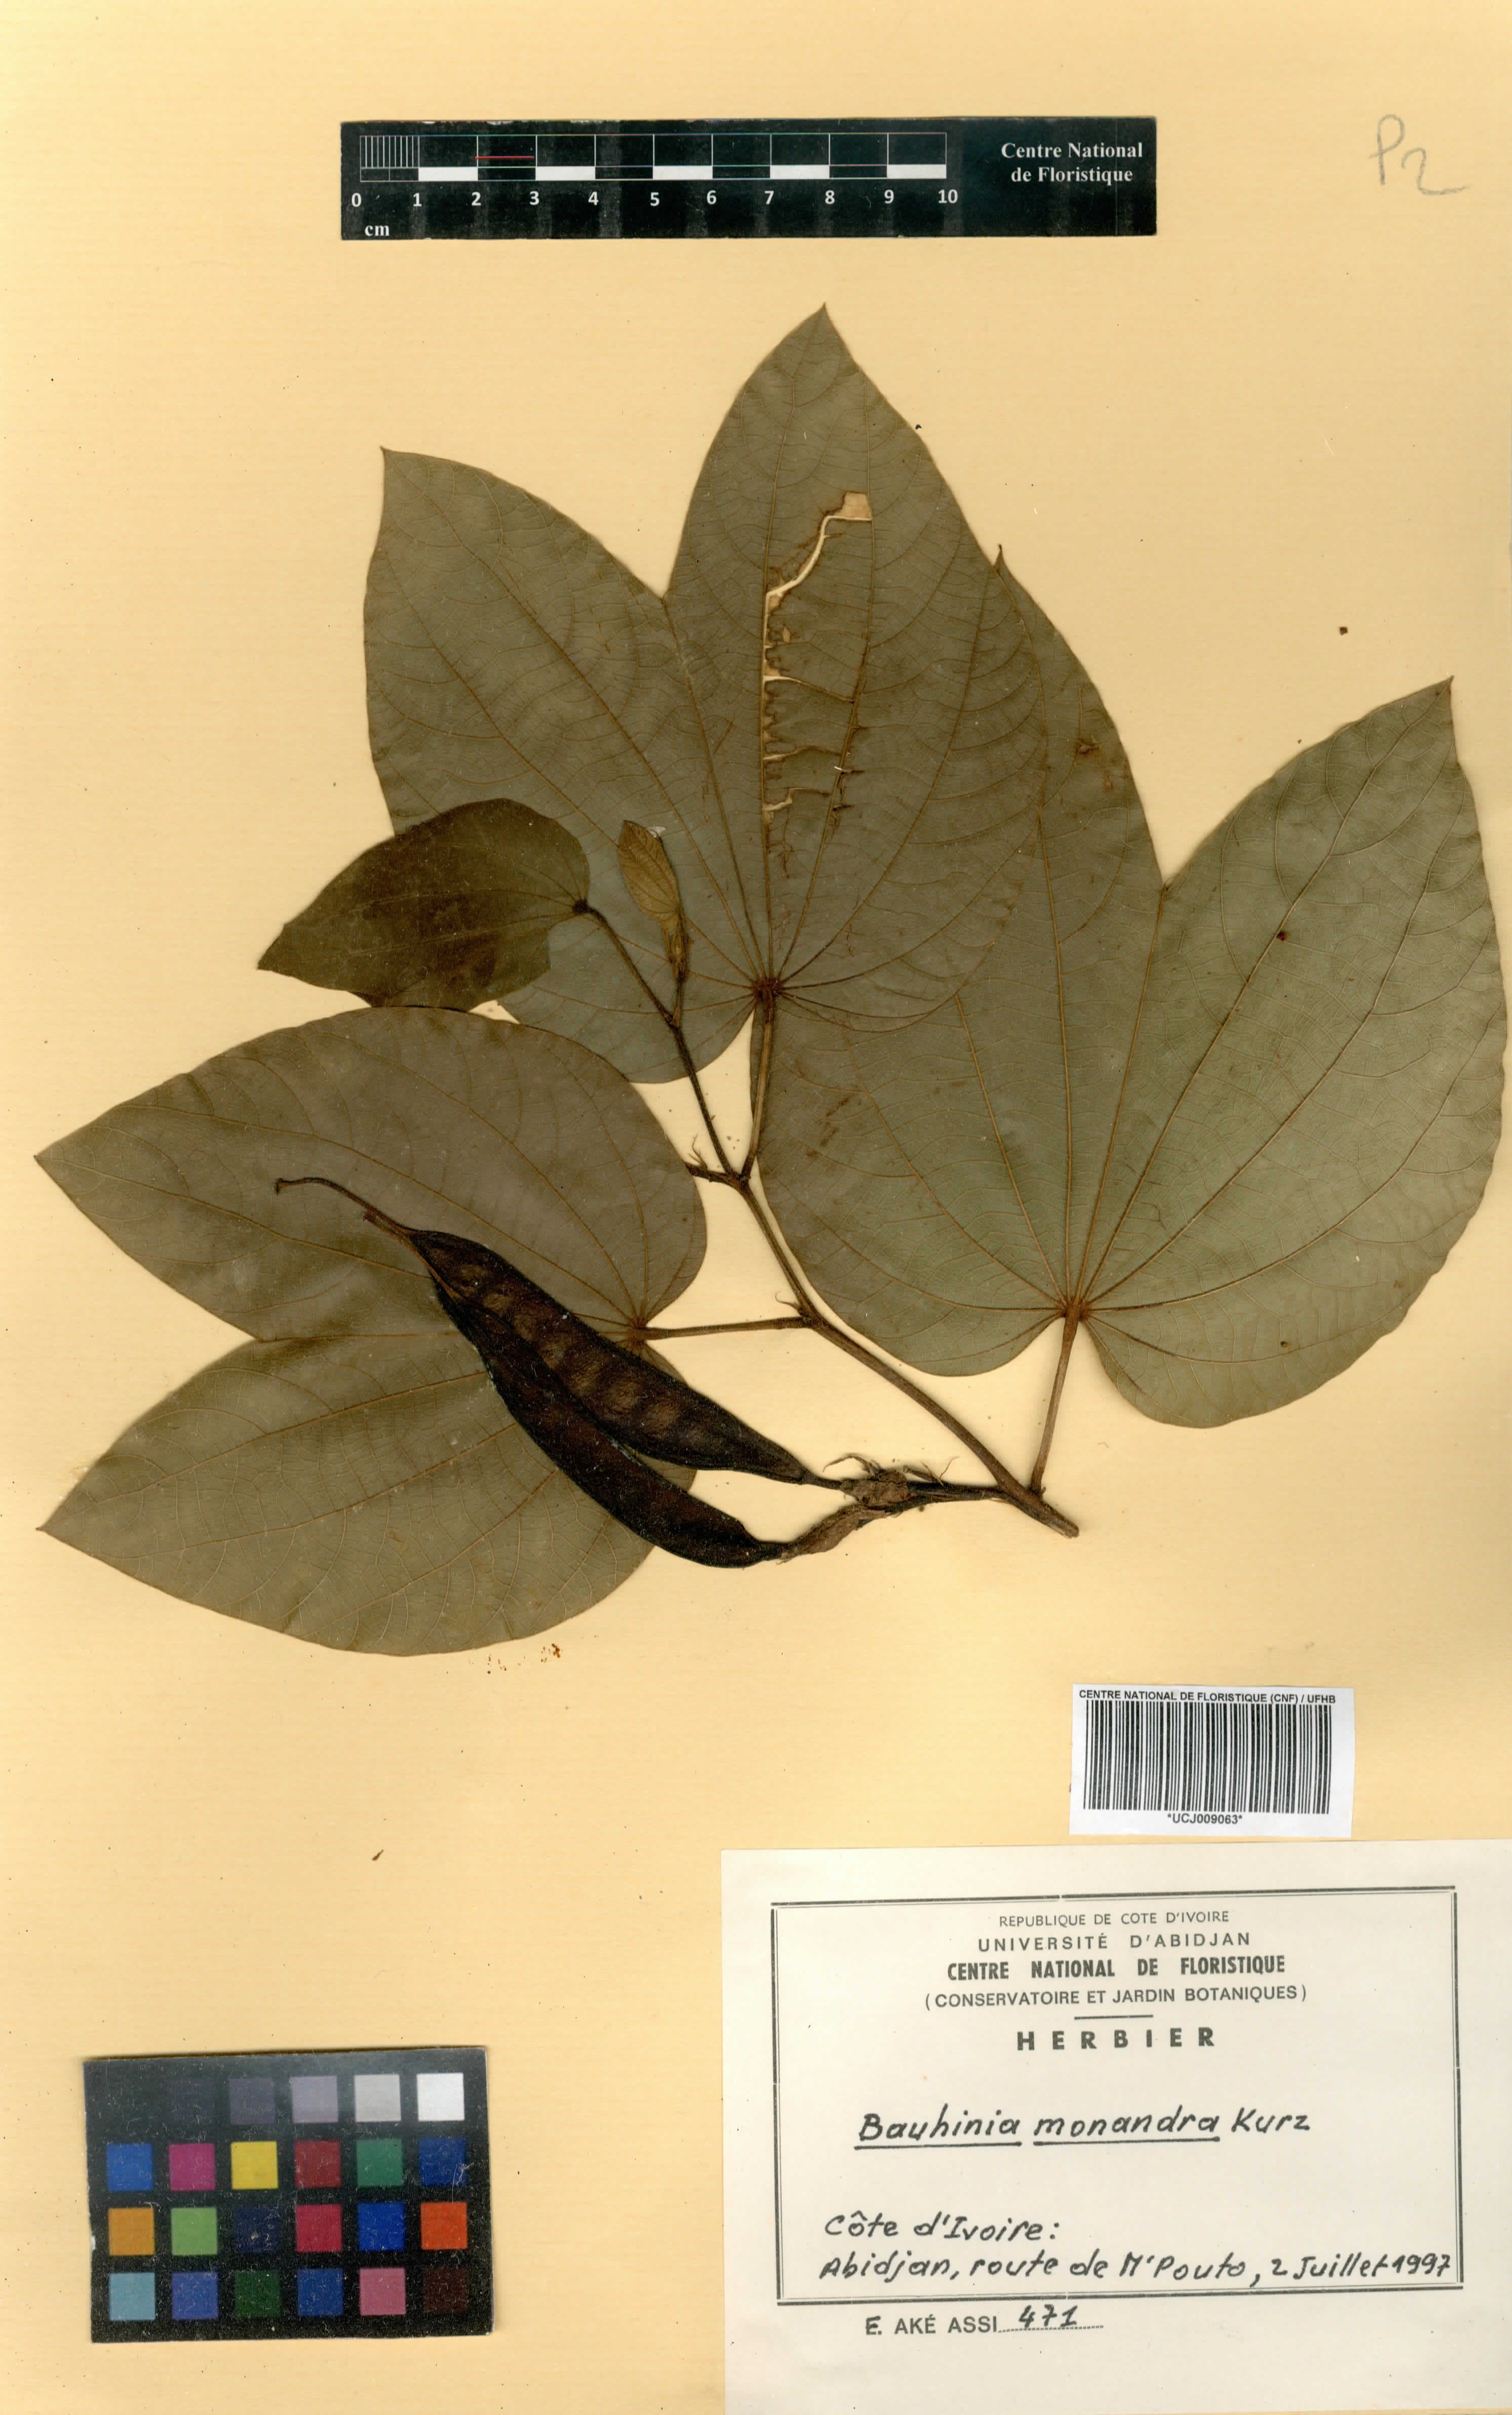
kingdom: Plantae
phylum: Tracheophyta
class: Magnoliopsida
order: Fabales
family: Fabaceae
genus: Bauhinia
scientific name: Bauhinia monandra
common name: Napoleon's plume
